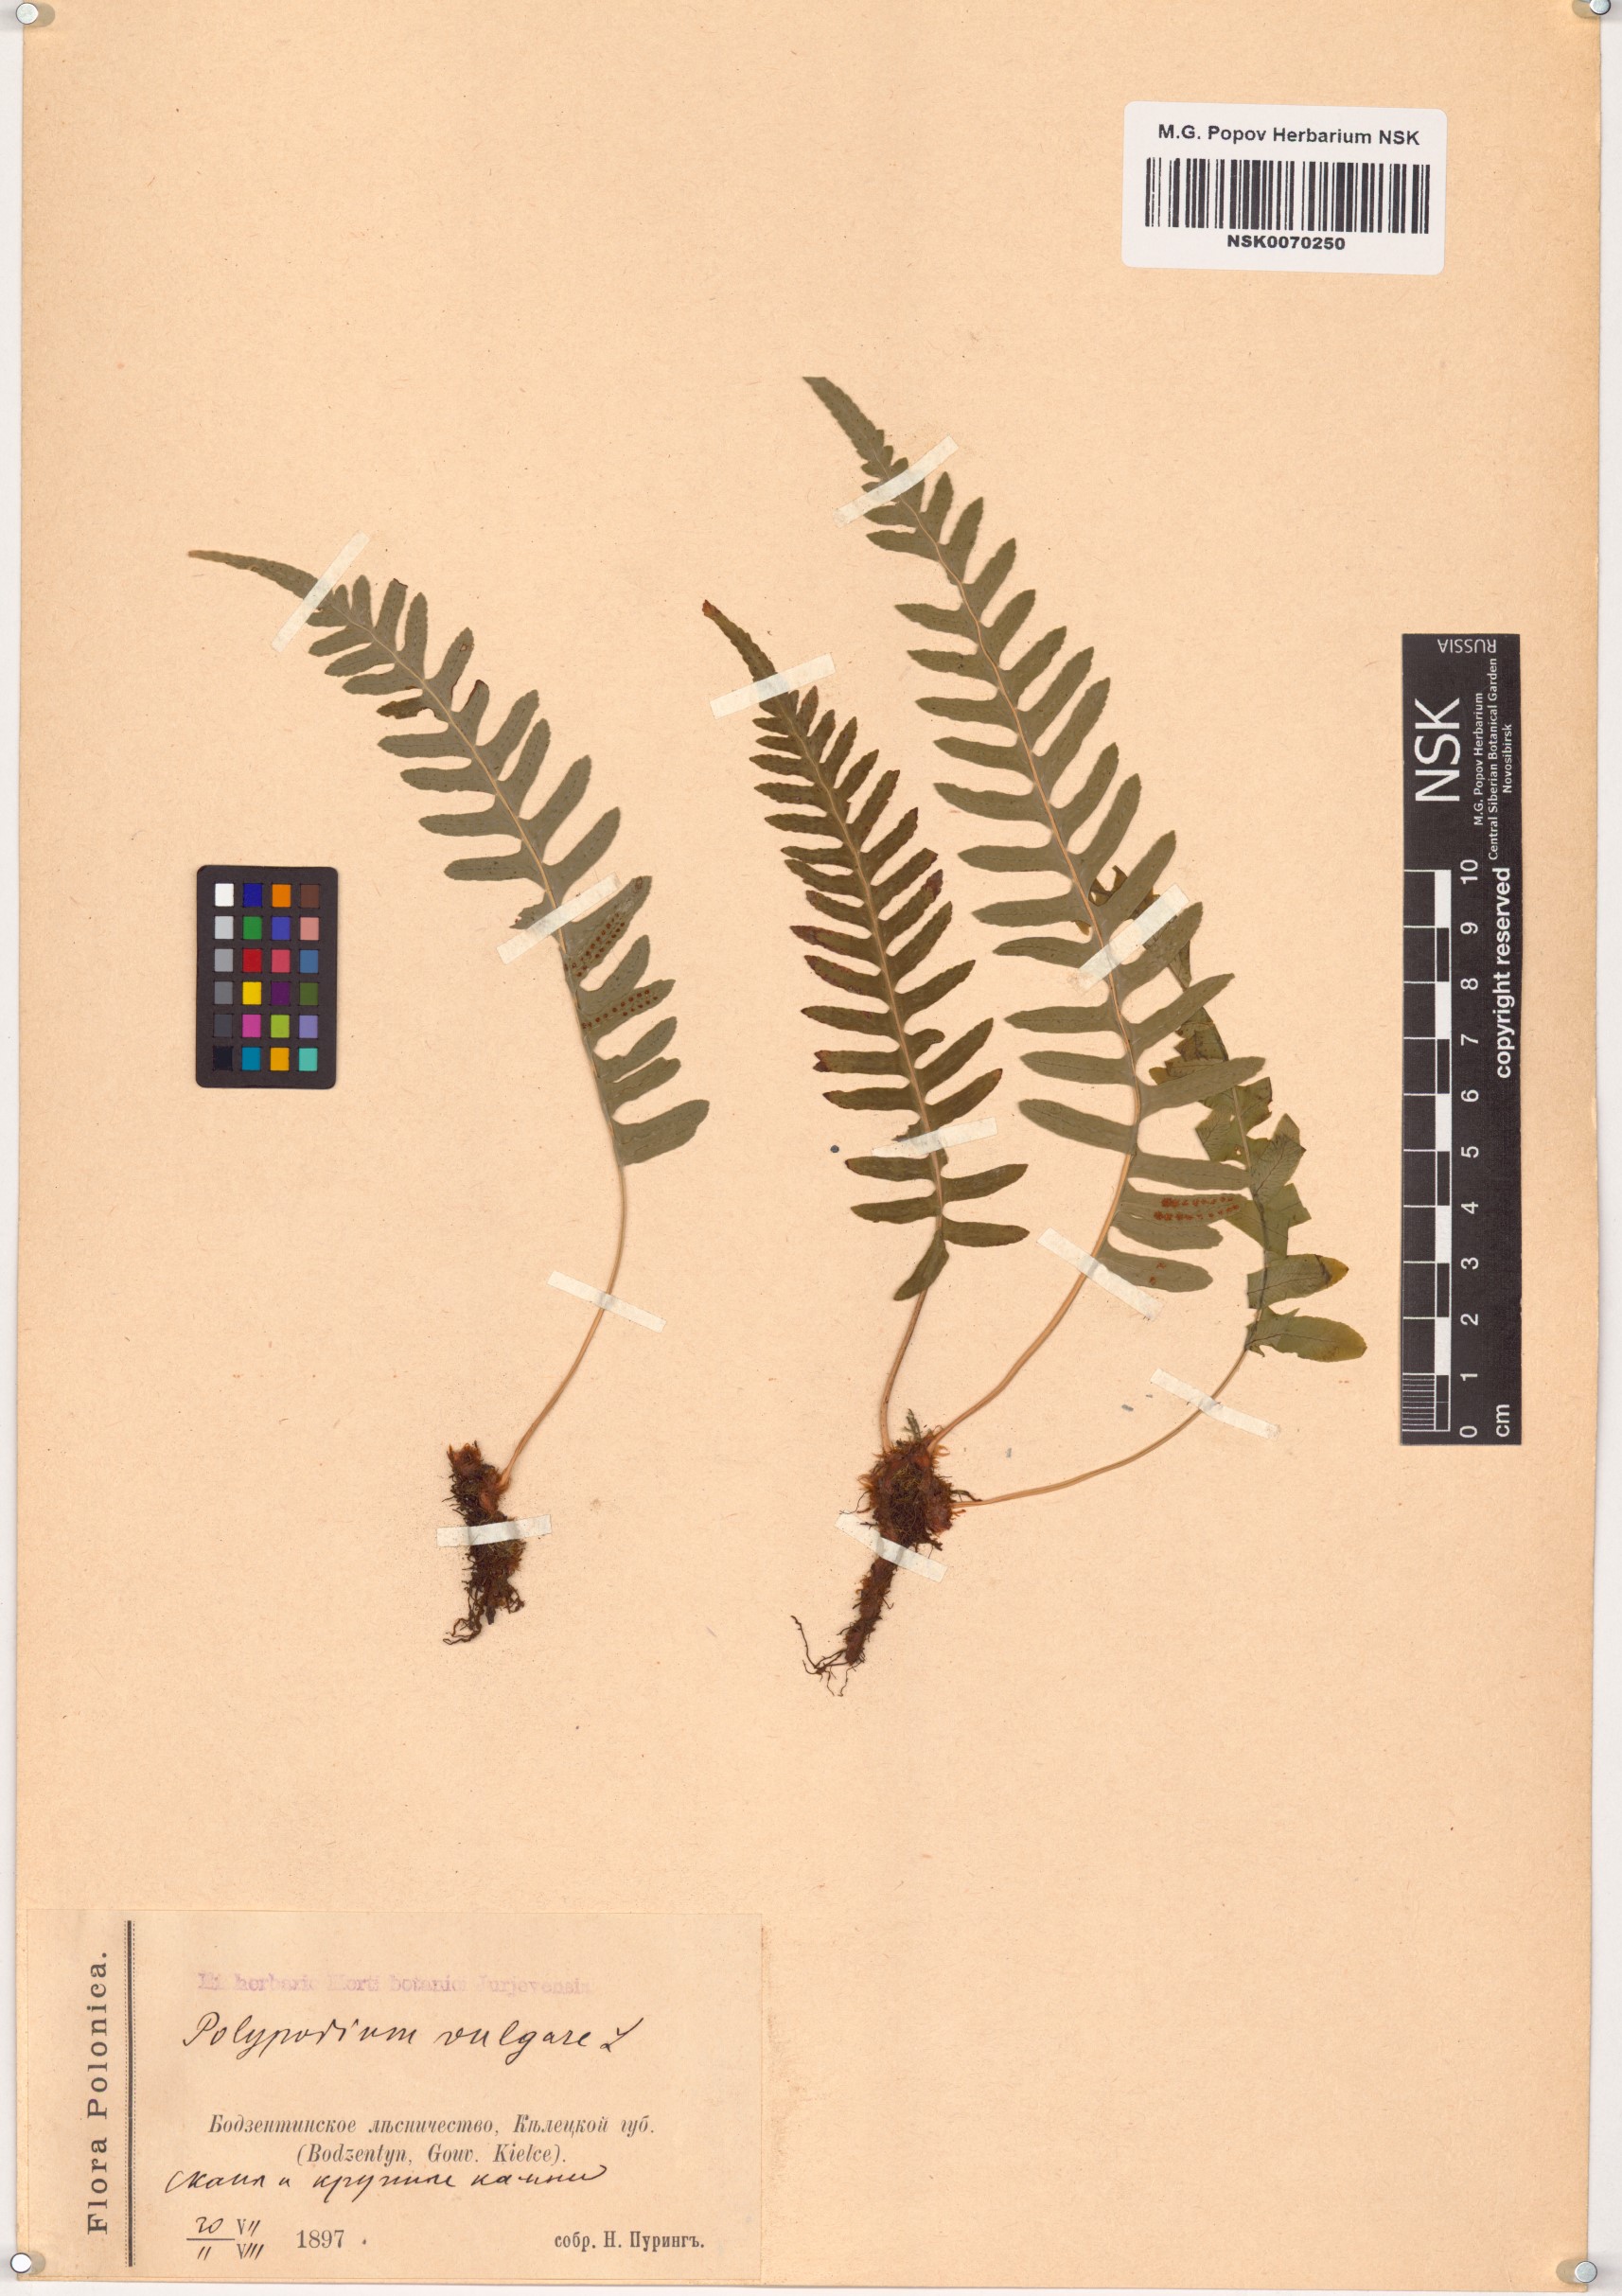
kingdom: Plantae
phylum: Tracheophyta
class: Polypodiopsida
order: Polypodiales
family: Polypodiaceae
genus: Polypodium
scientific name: Polypodium vulgare
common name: Common polypody
